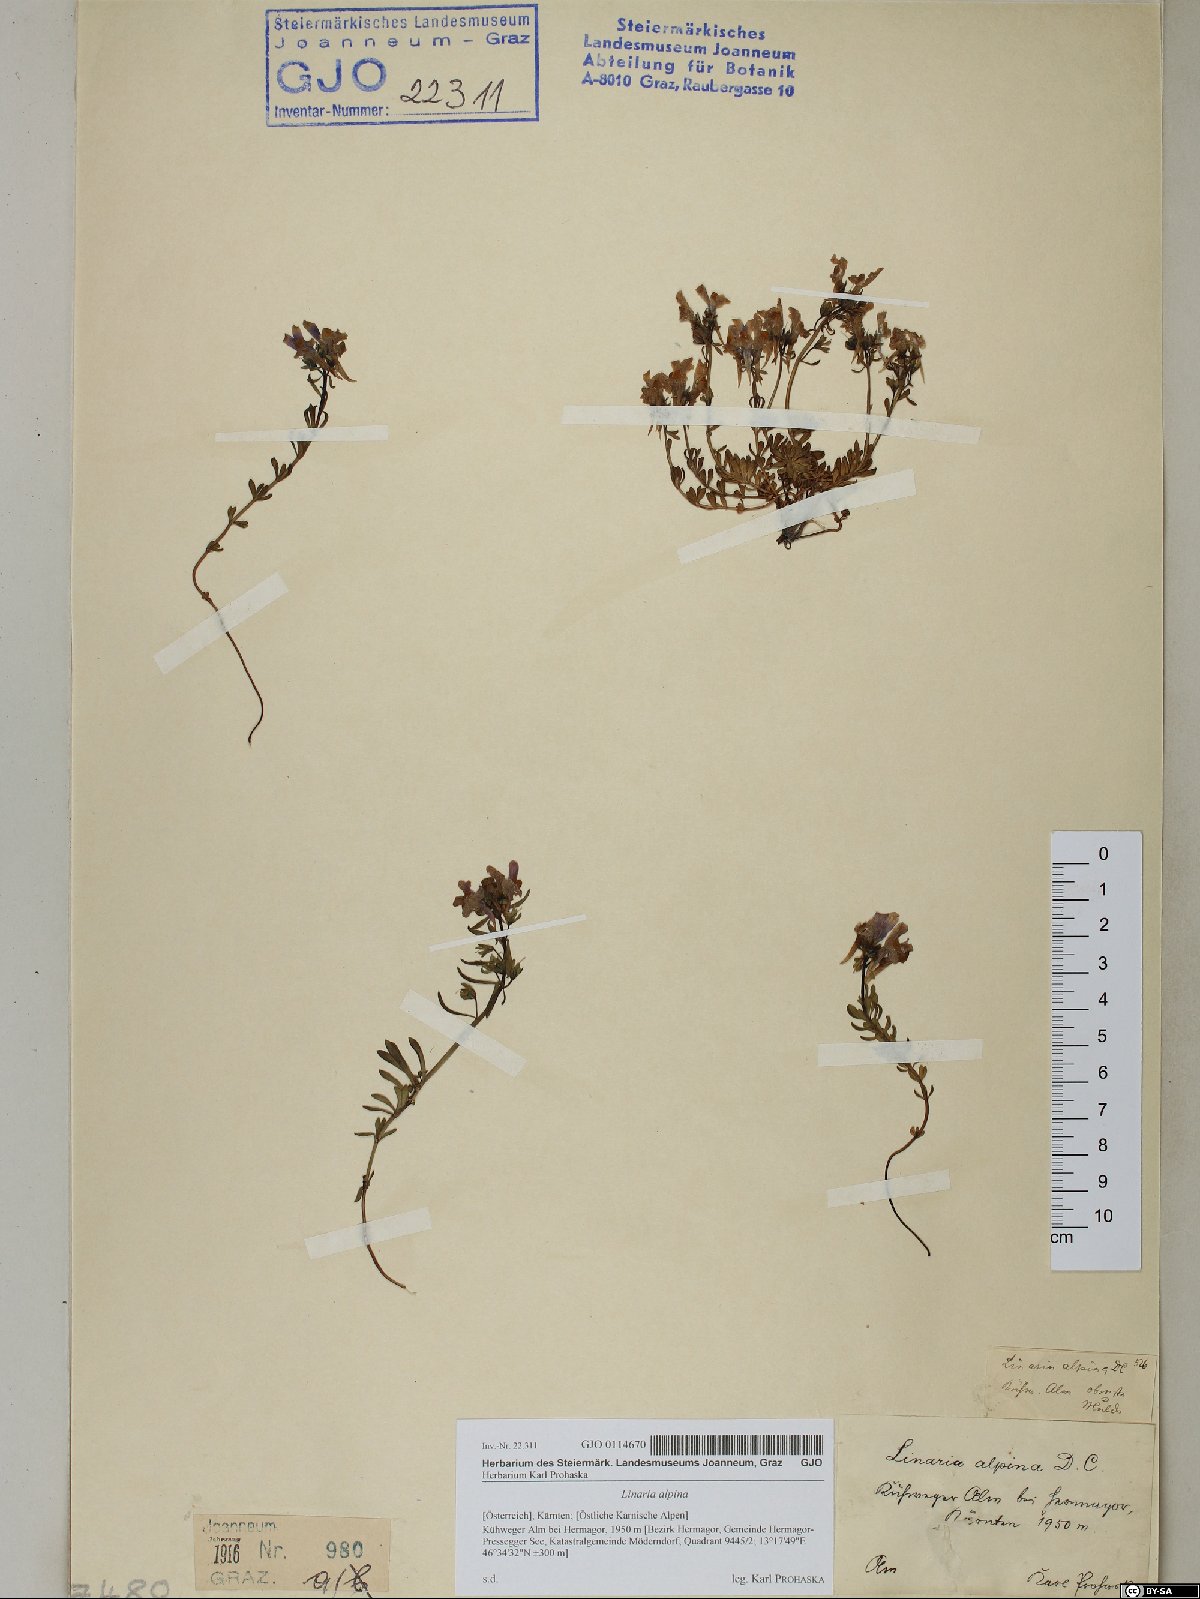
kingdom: Plantae
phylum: Tracheophyta
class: Magnoliopsida
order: Lamiales
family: Plantaginaceae
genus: Linaria
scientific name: Linaria alpina
